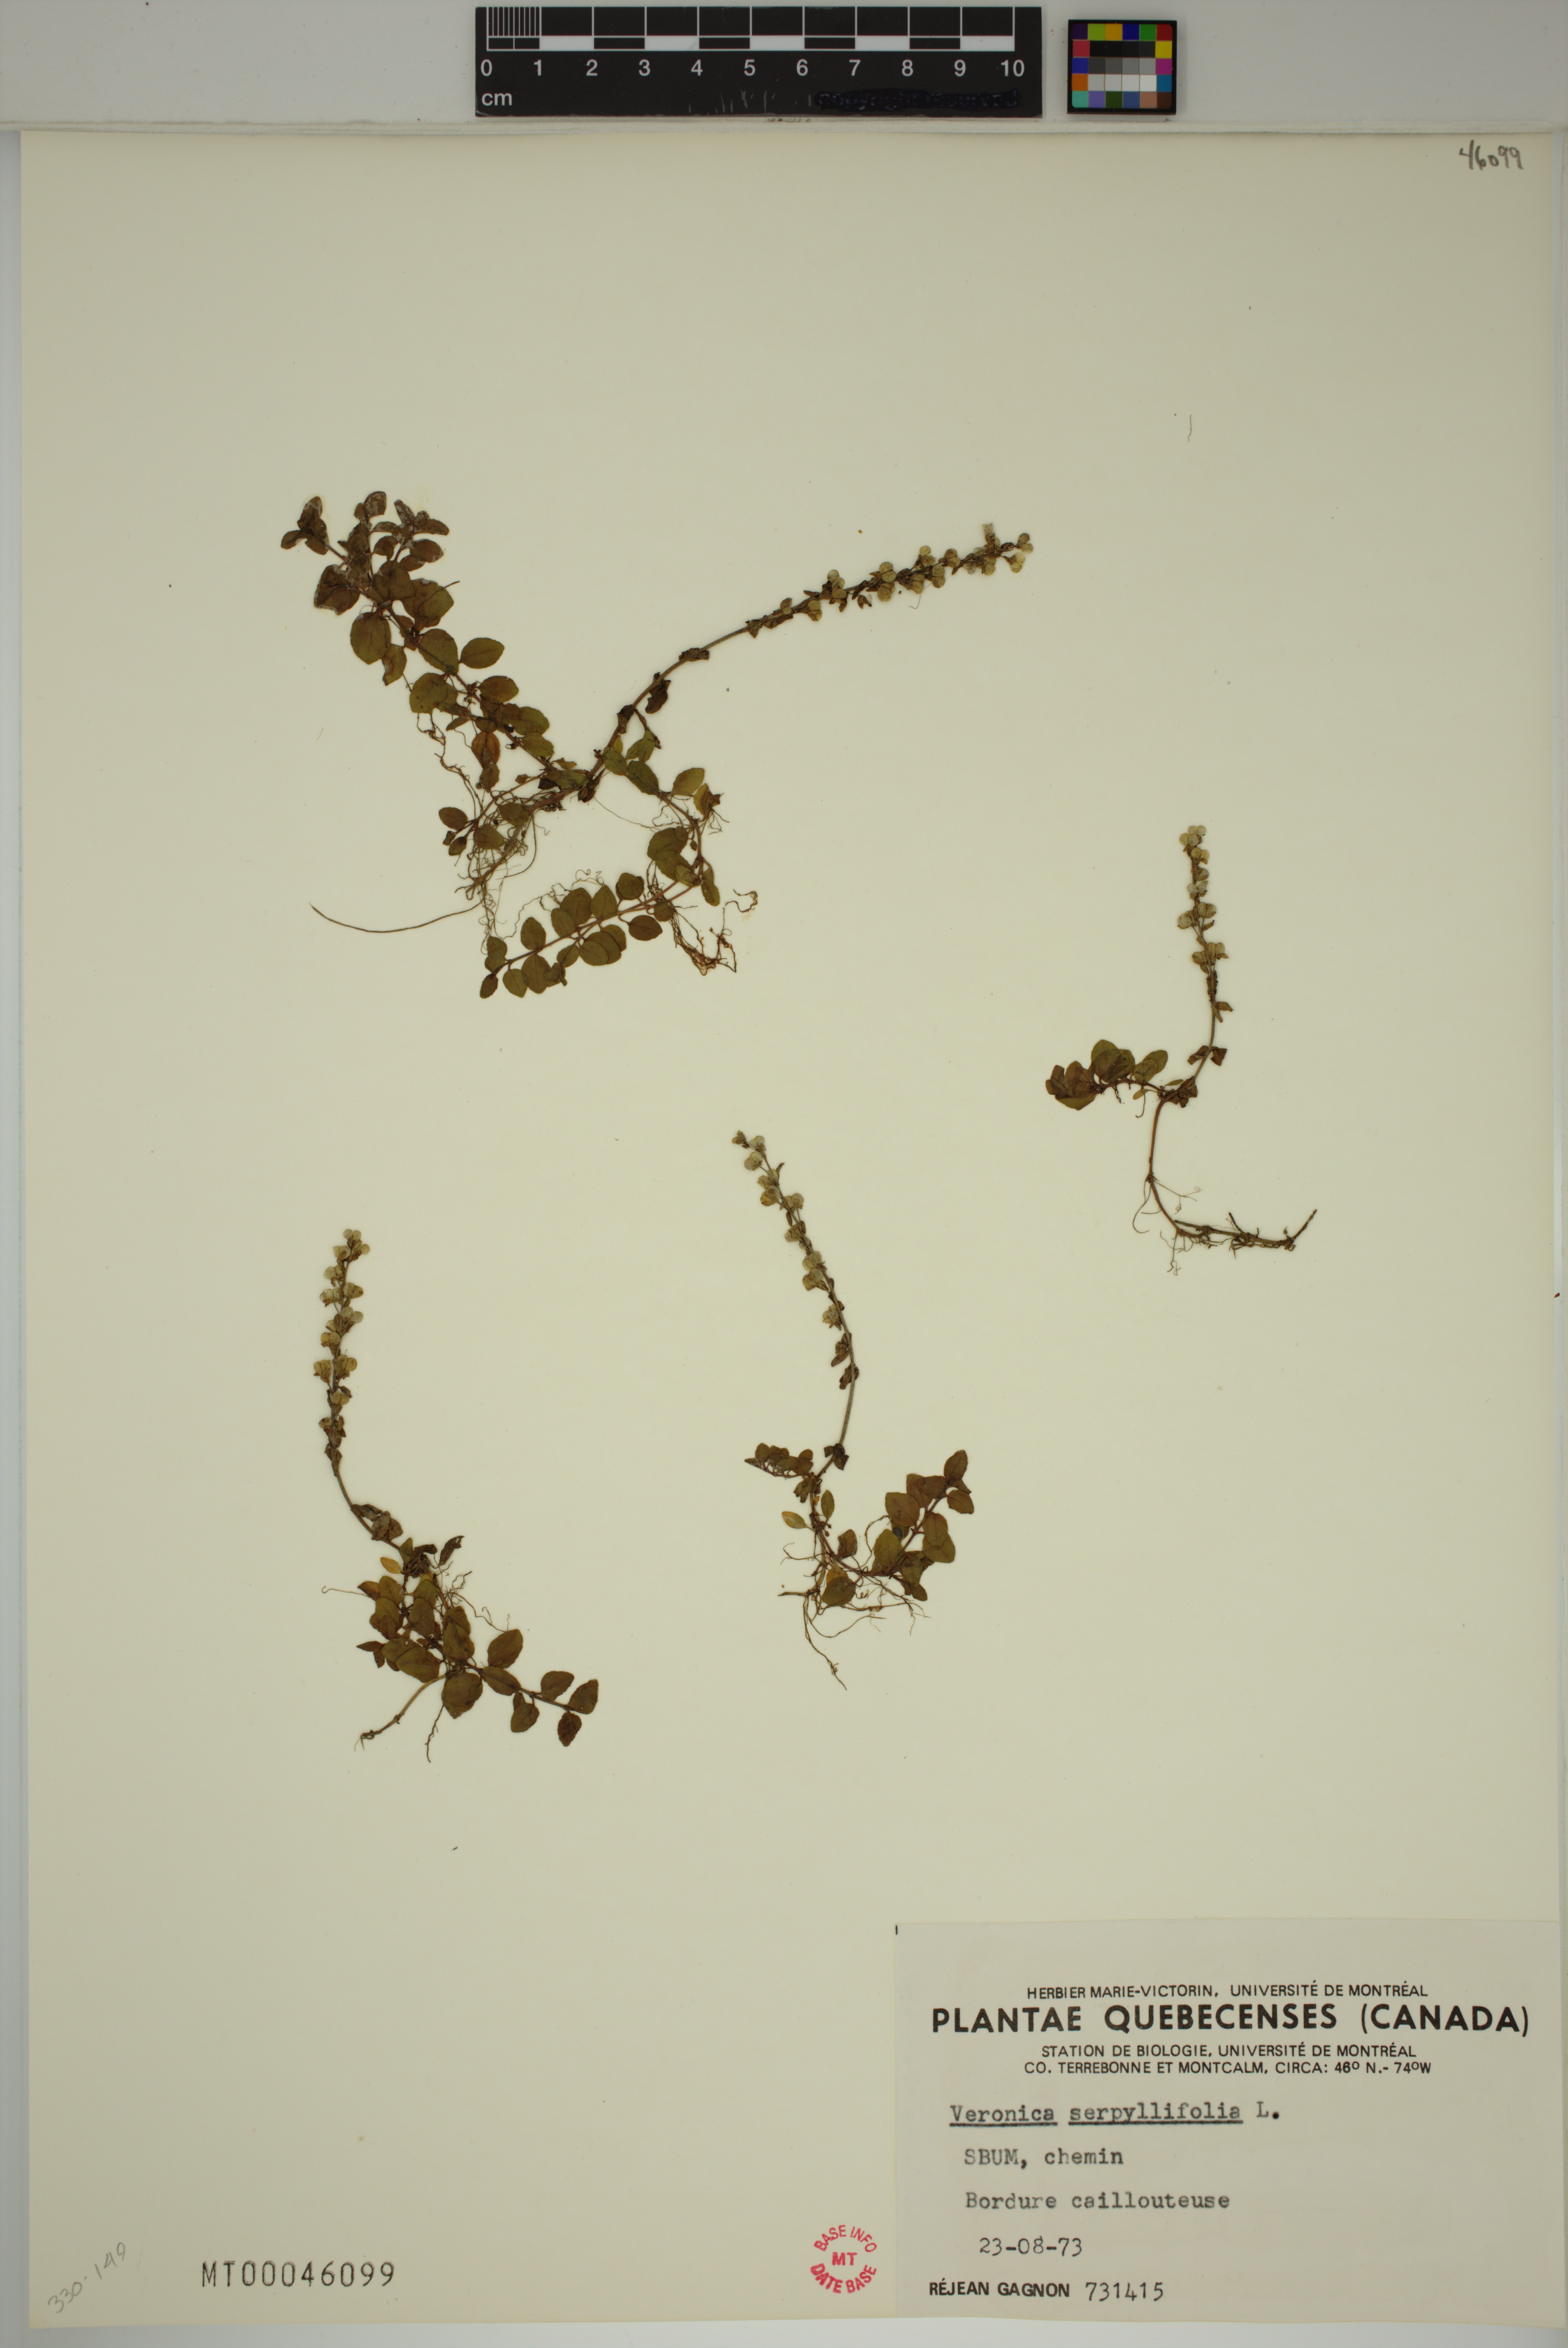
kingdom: Plantae
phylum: Tracheophyta
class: Magnoliopsida
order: Lamiales
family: Plantaginaceae
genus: Veronica
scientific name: Veronica serpyllifolia
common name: Thyme-leaved speedwell
